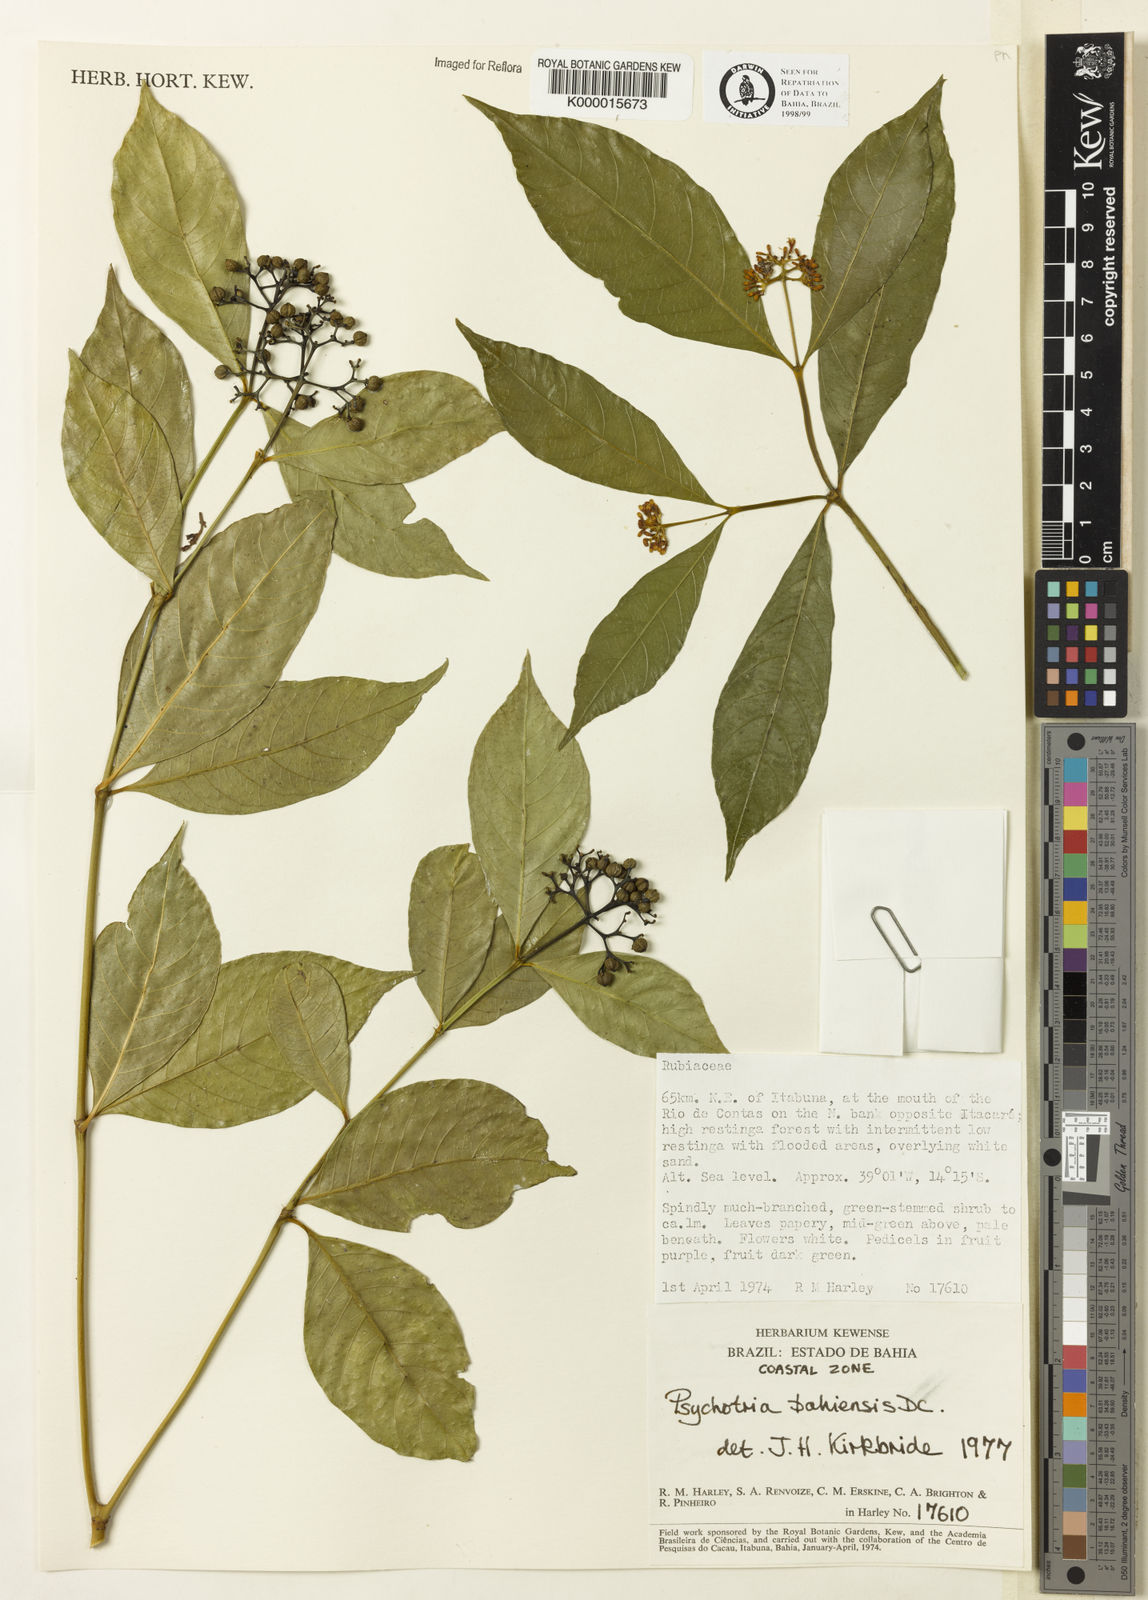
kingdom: Plantae
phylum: Tracheophyta
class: Magnoliopsida
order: Gentianales
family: Rubiaceae
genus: Psychotria
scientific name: Psychotria bahiensis
